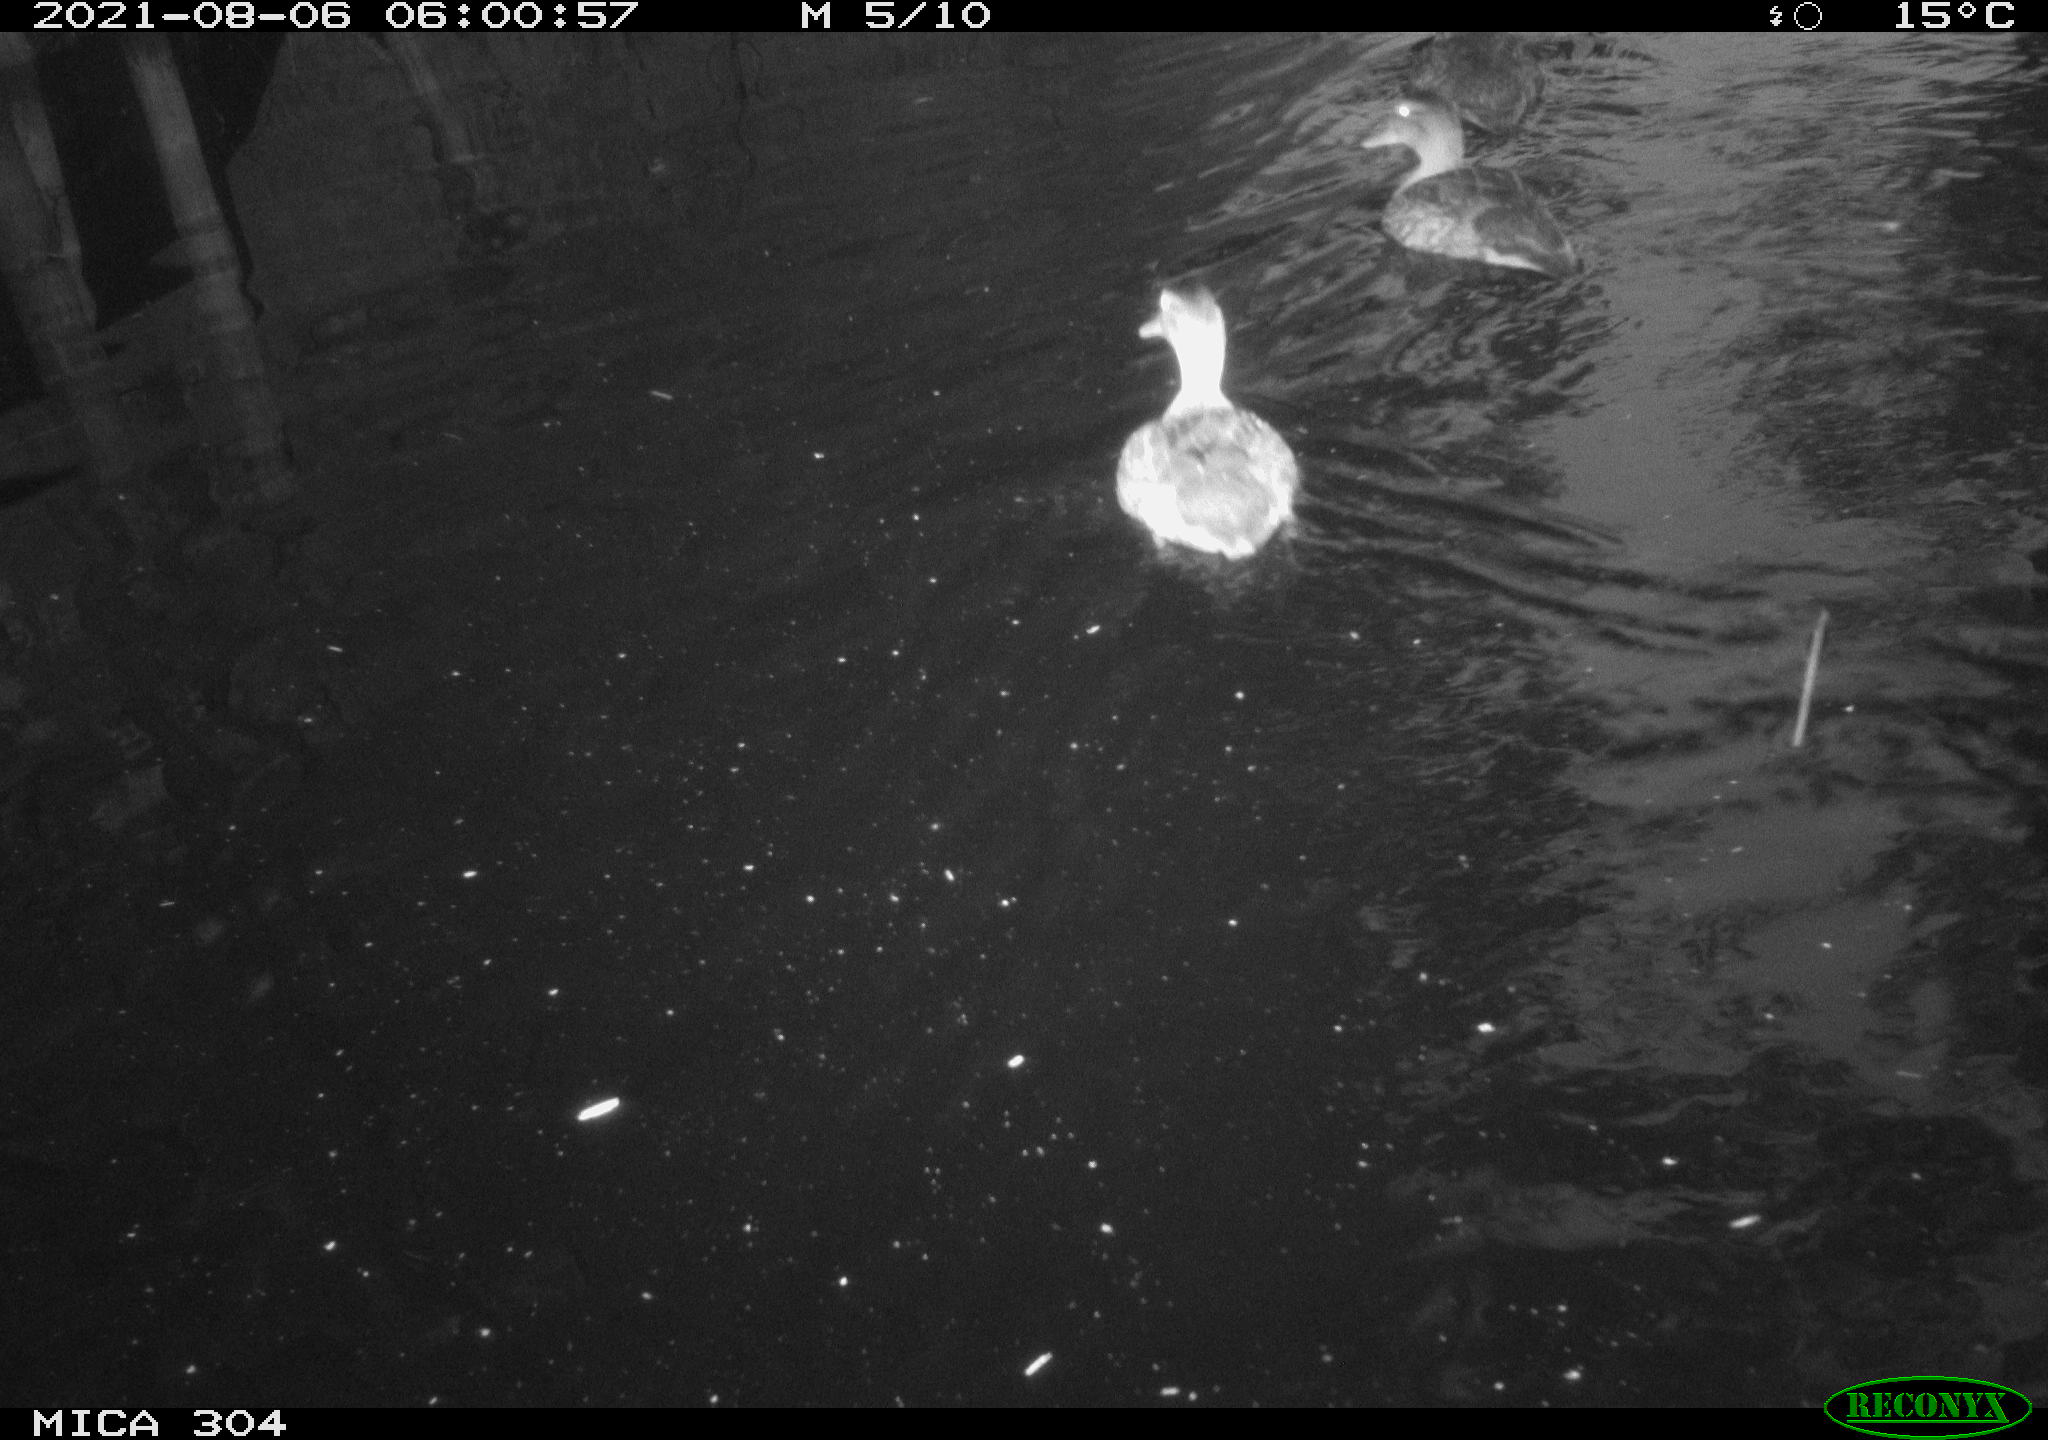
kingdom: Animalia
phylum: Chordata
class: Aves
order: Anseriformes
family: Anatidae
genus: Mareca
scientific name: Mareca strepera
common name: Gadwall
